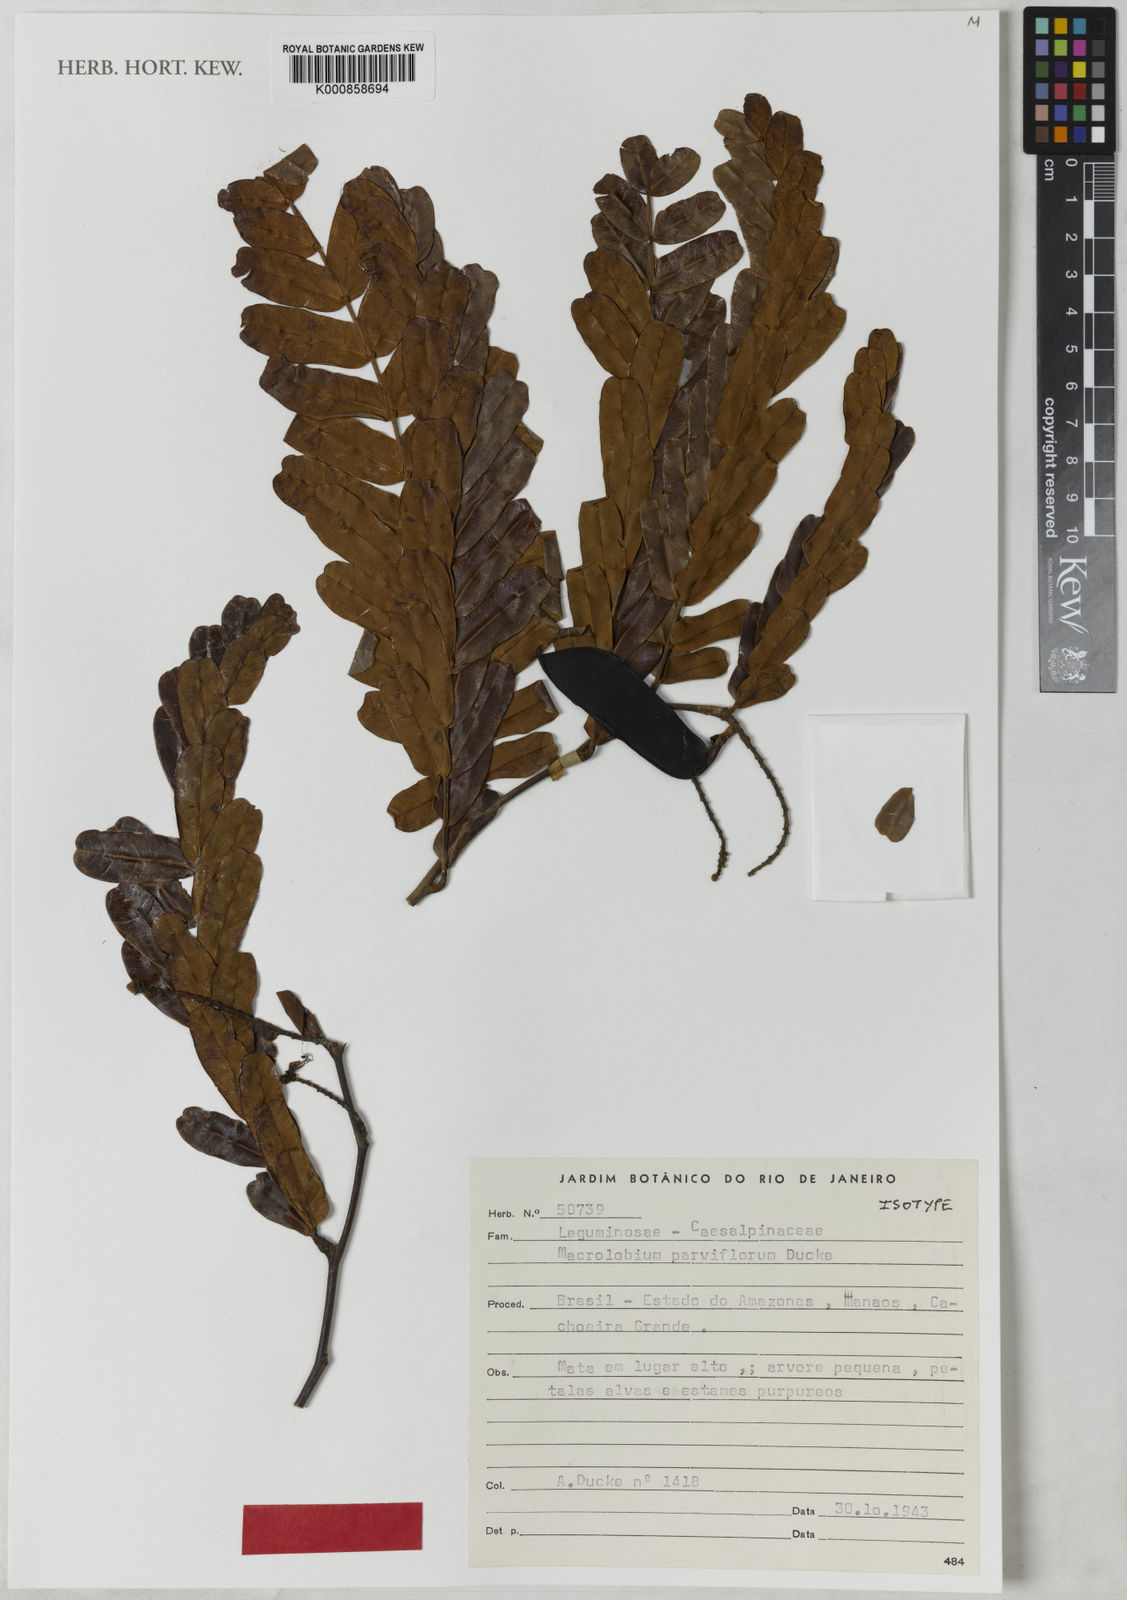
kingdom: Plantae
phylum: Tracheophyta
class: Magnoliopsida
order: Fabales
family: Fabaceae
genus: Macrolobium
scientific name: Macrolobium flexuosum
